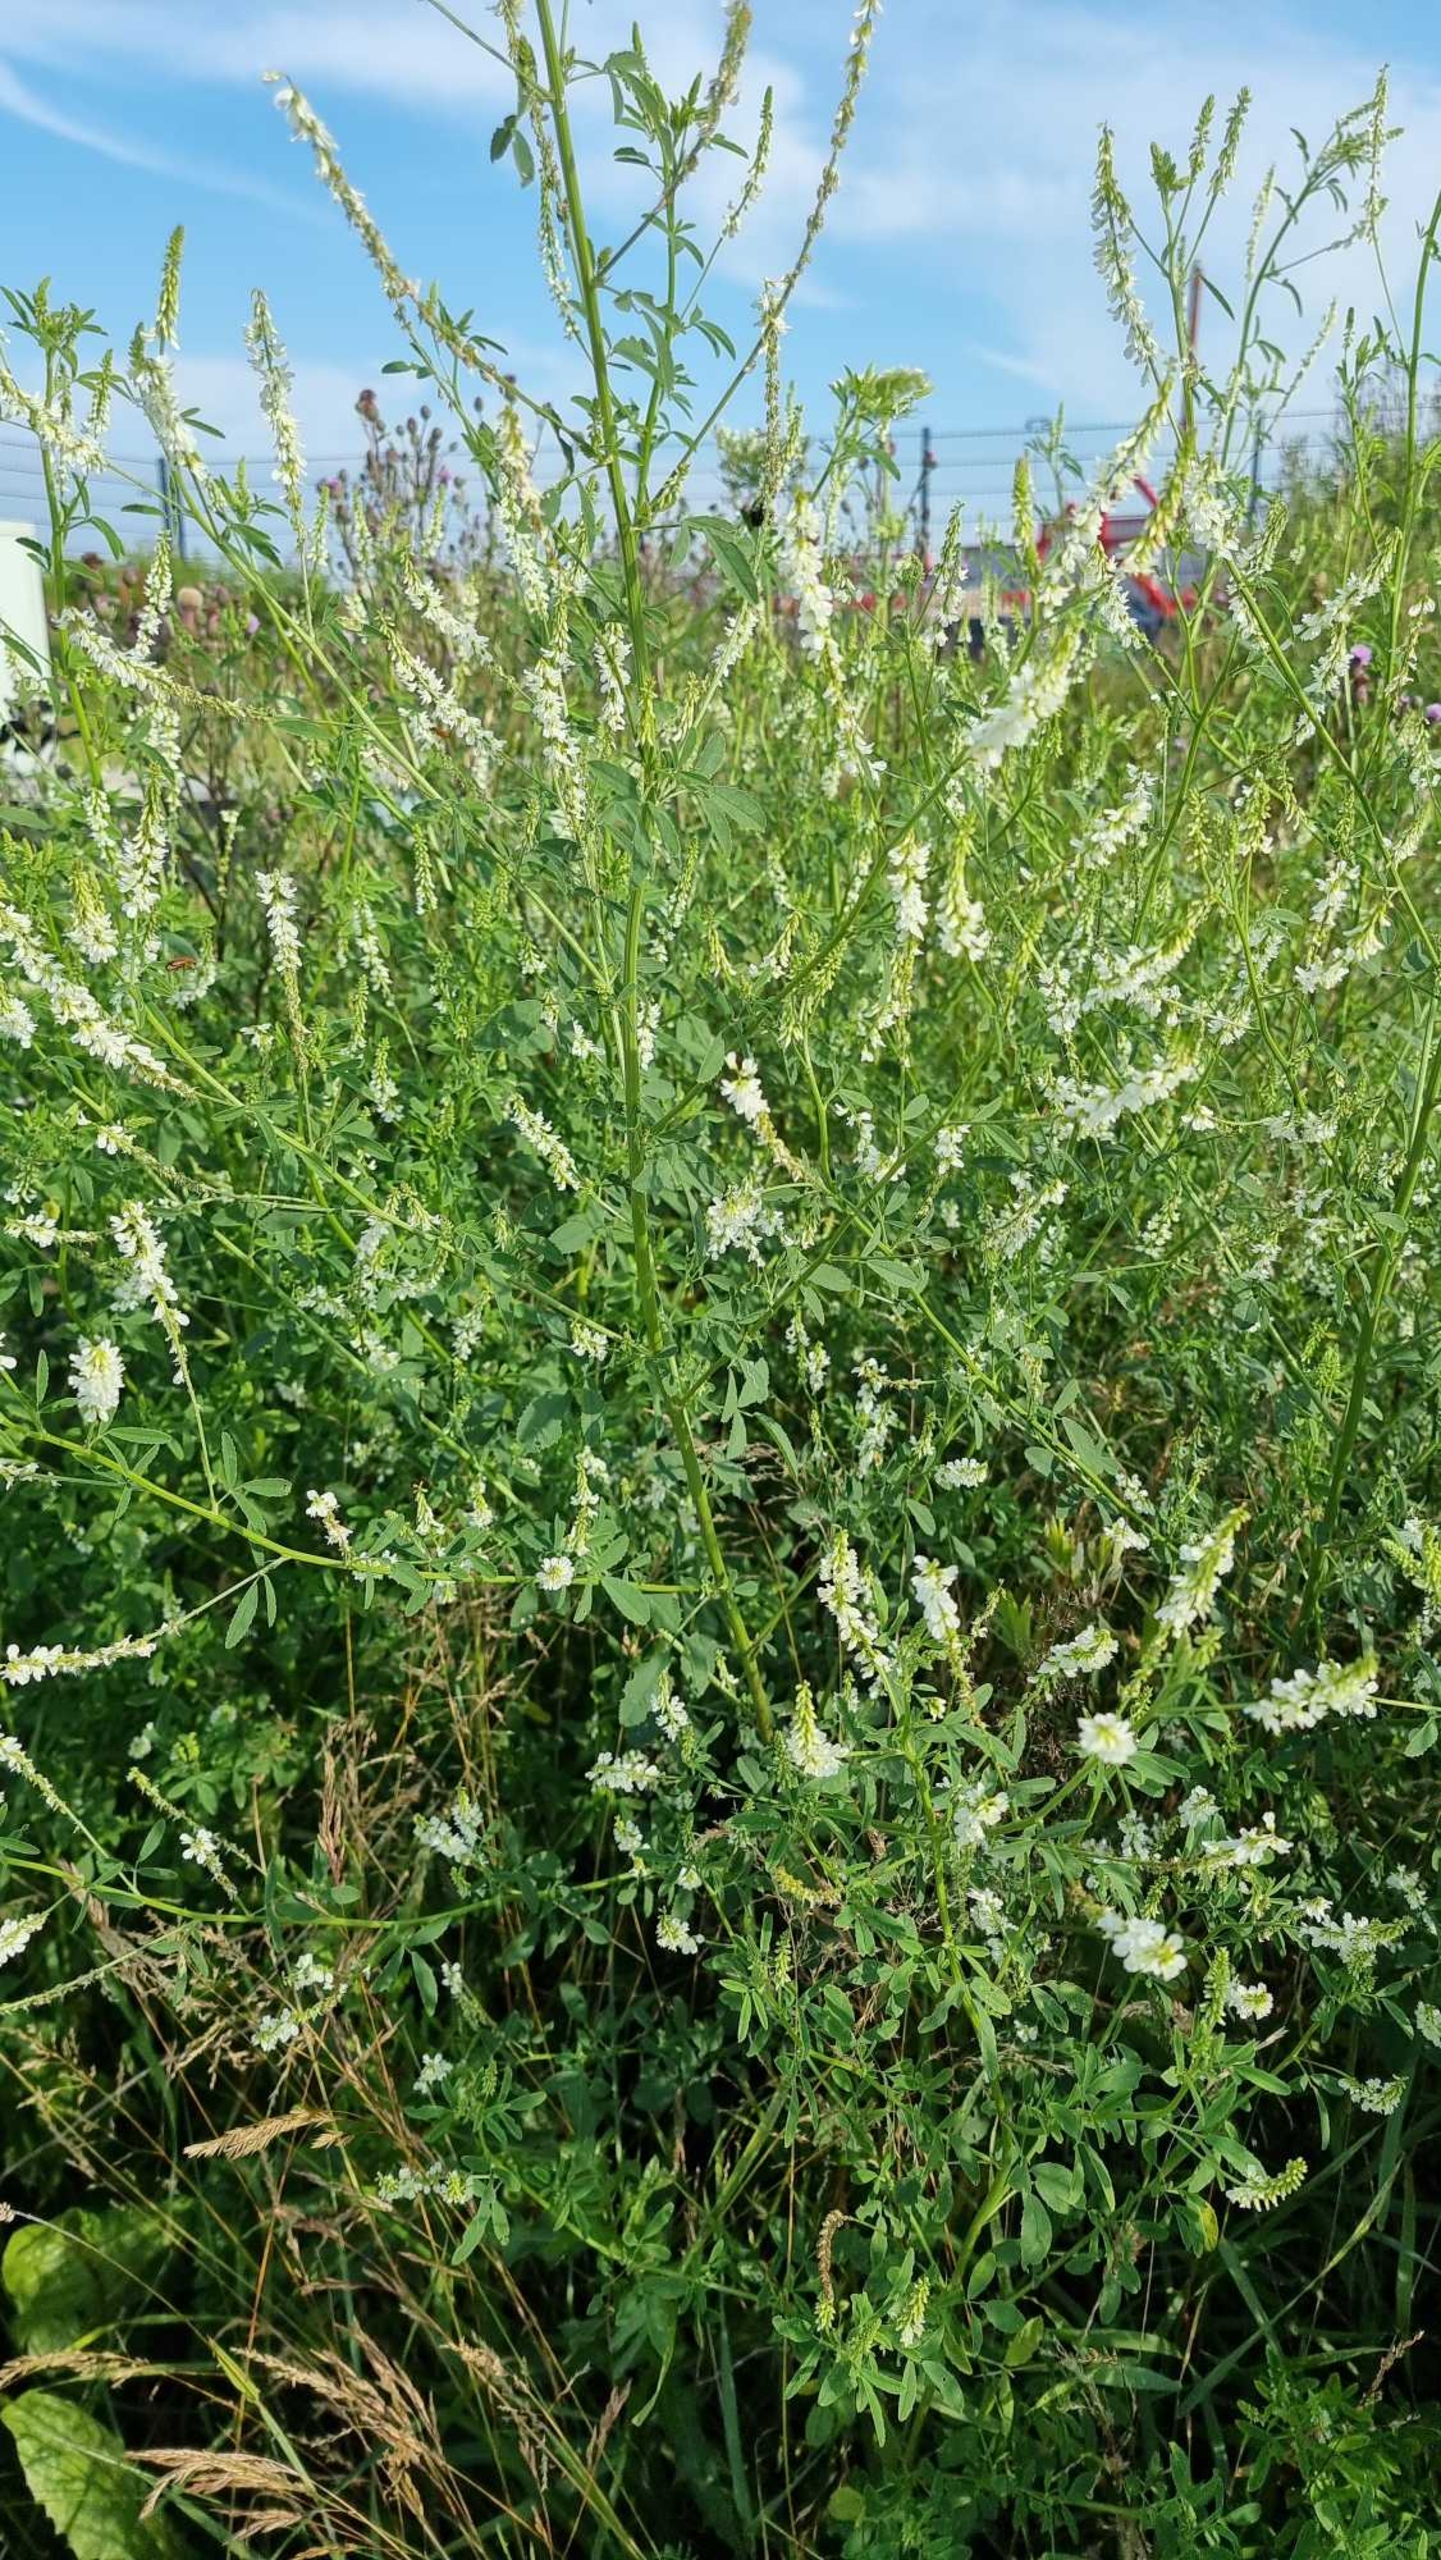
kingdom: Plantae
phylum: Tracheophyta
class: Magnoliopsida
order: Fabales
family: Fabaceae
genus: Melilotus
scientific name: Melilotus albus
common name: Hvid stenkløver
